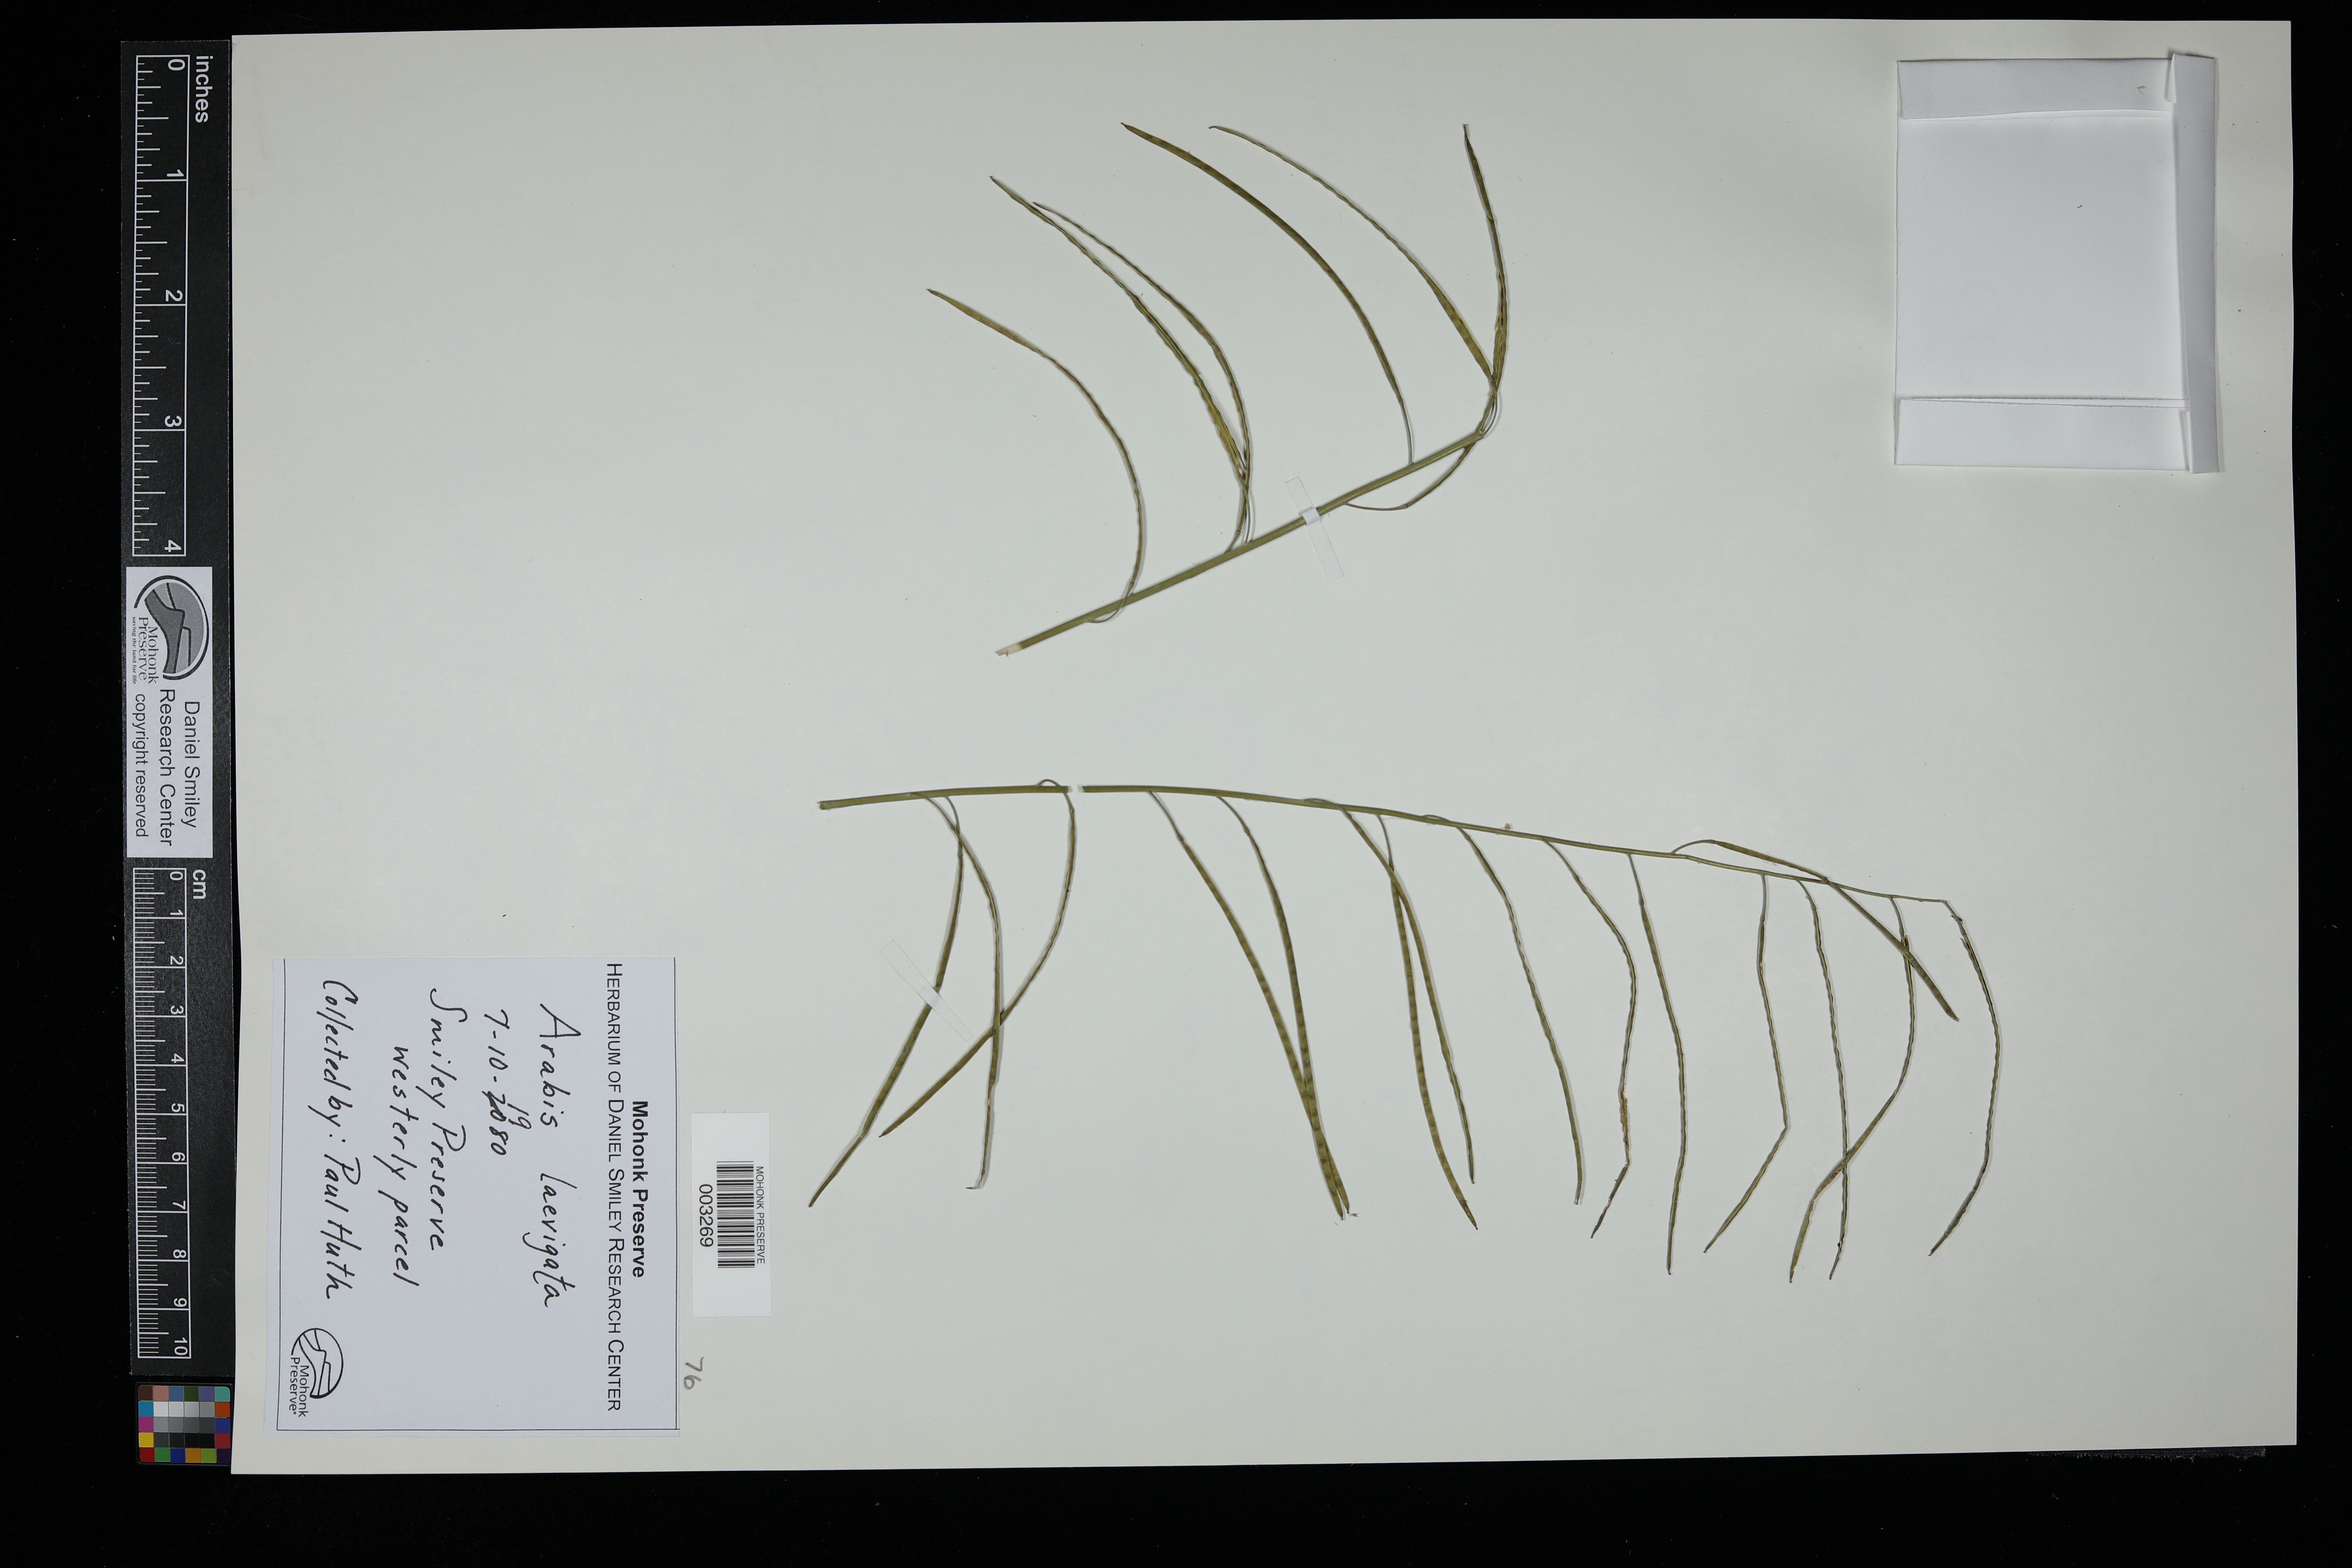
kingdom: Plantae
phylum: Tracheophyta
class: Magnoliopsida
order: Brassicales
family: Brassicaceae
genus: Boechera
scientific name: Boechera stricta
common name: Canadian rockcress
